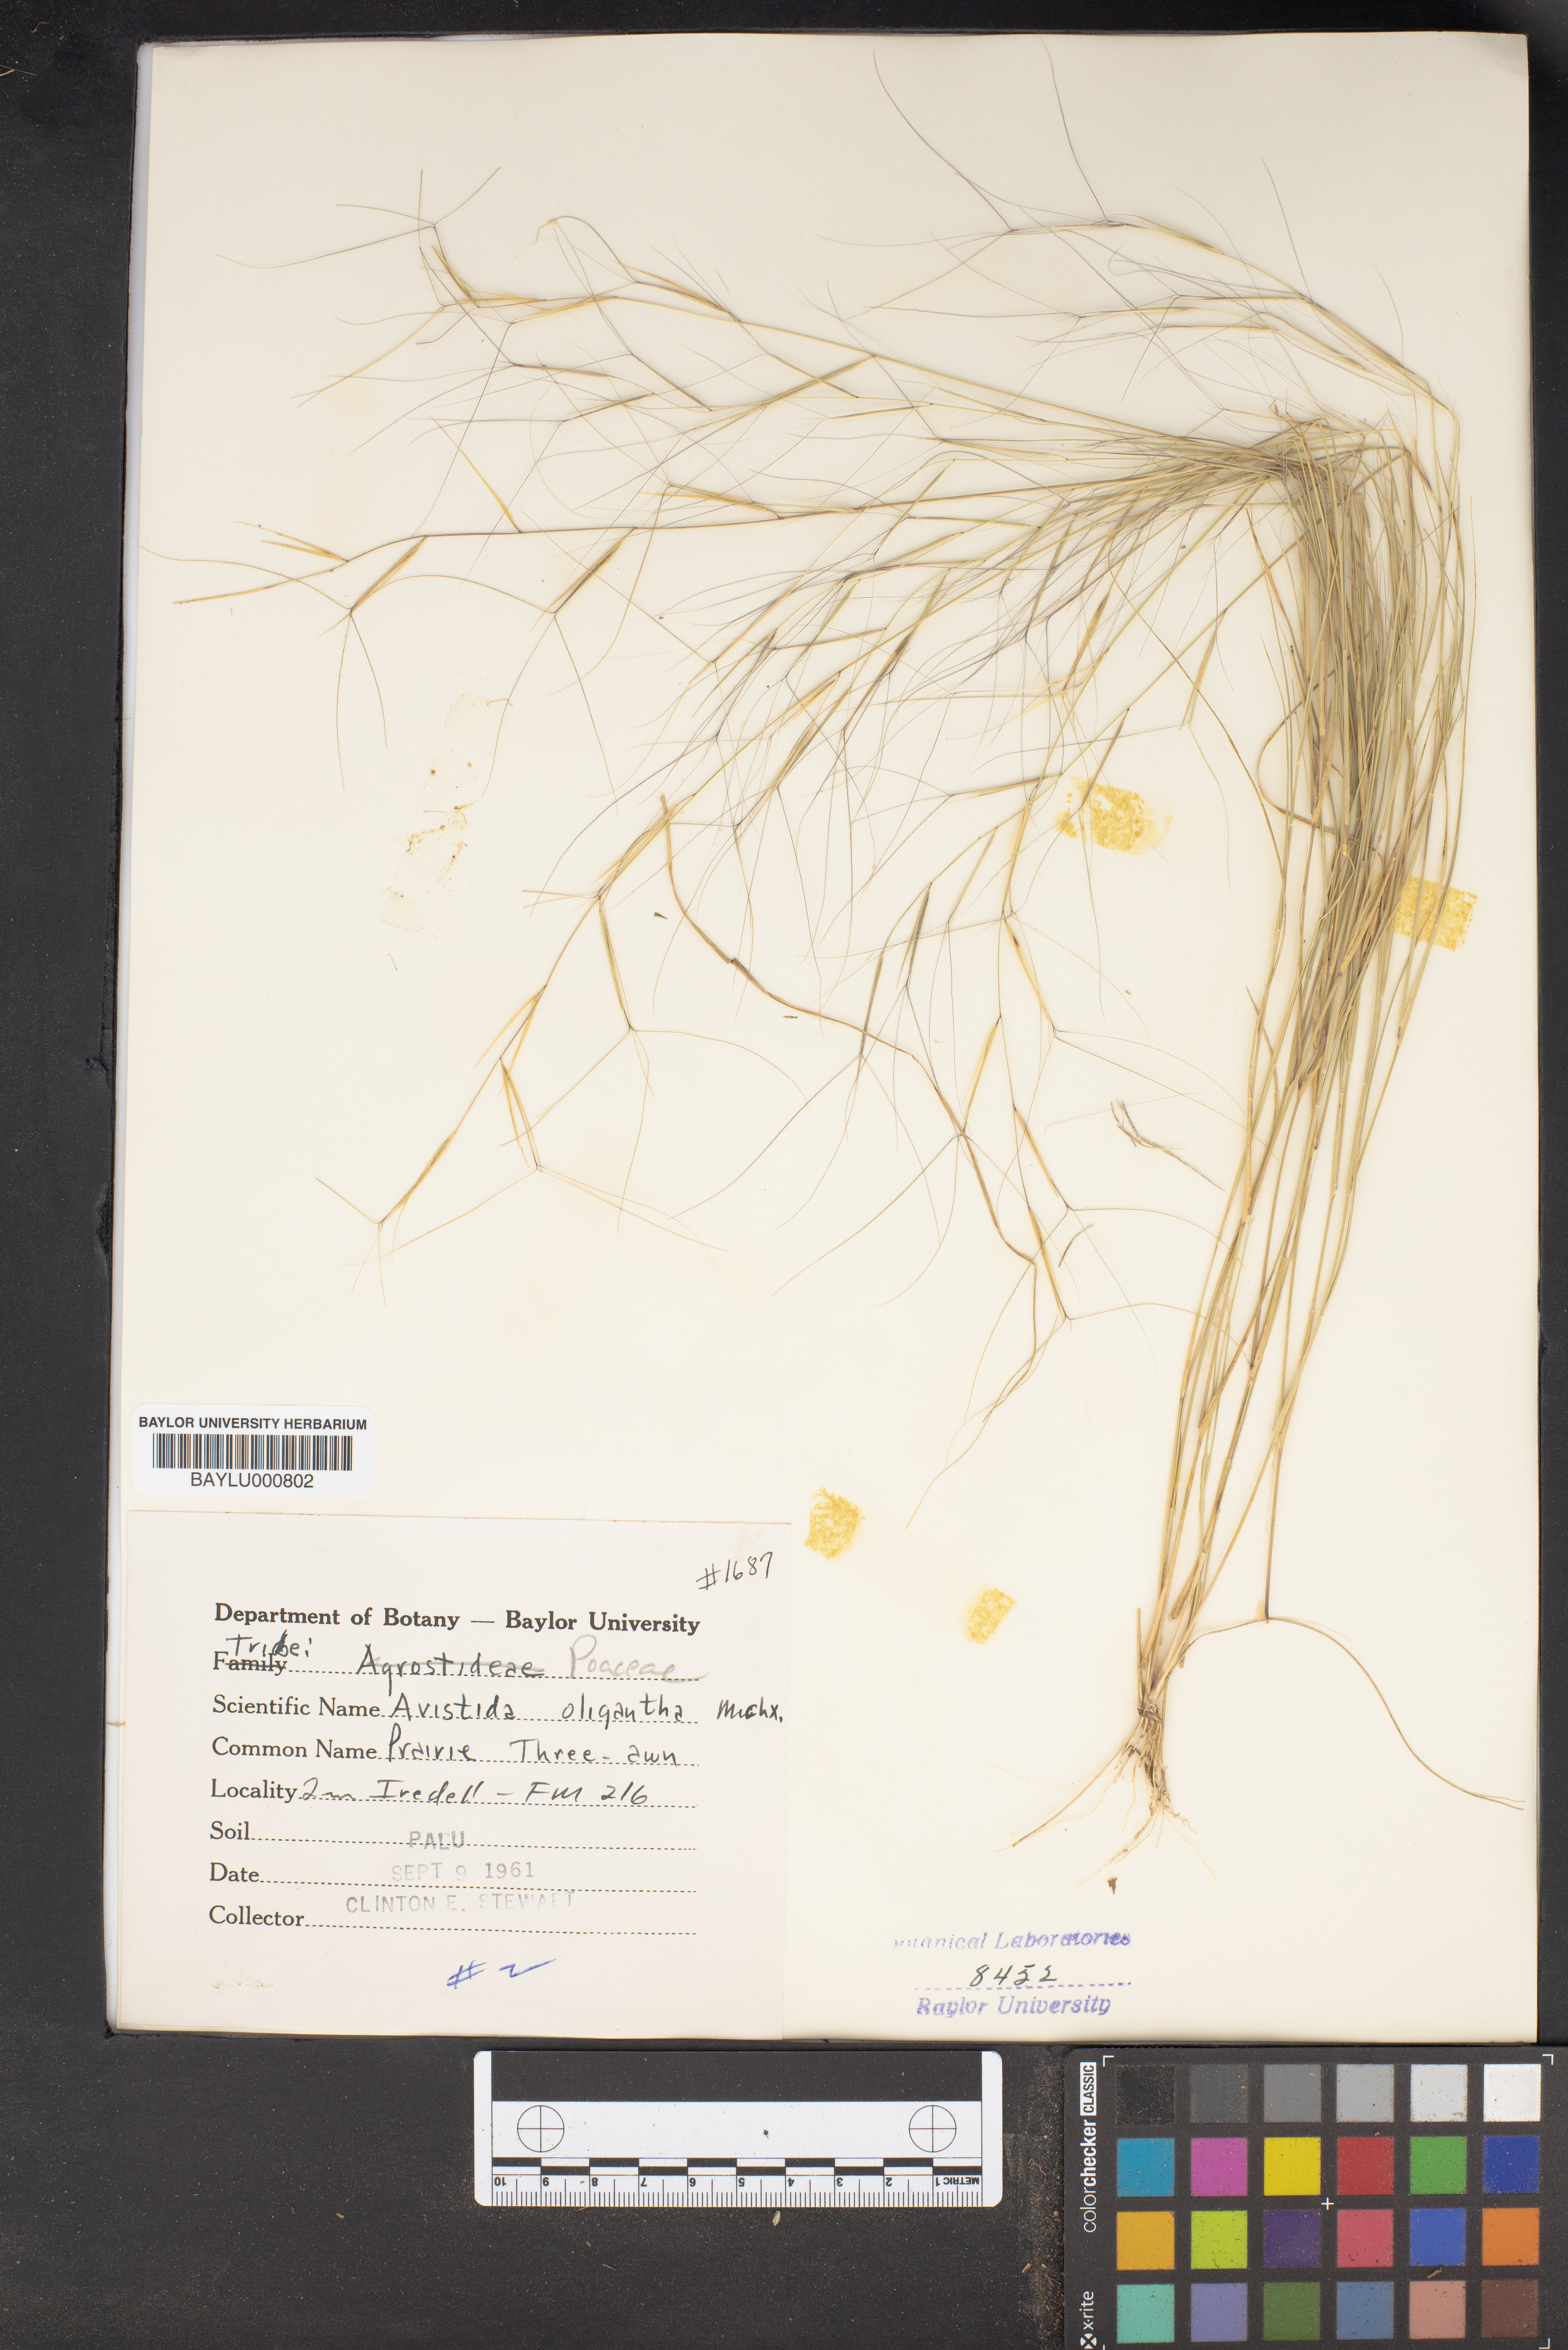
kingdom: Plantae
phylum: Tracheophyta
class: Liliopsida
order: Poales
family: Poaceae
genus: Aristida
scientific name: Aristida oligantha
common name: Few-flowered aristida
